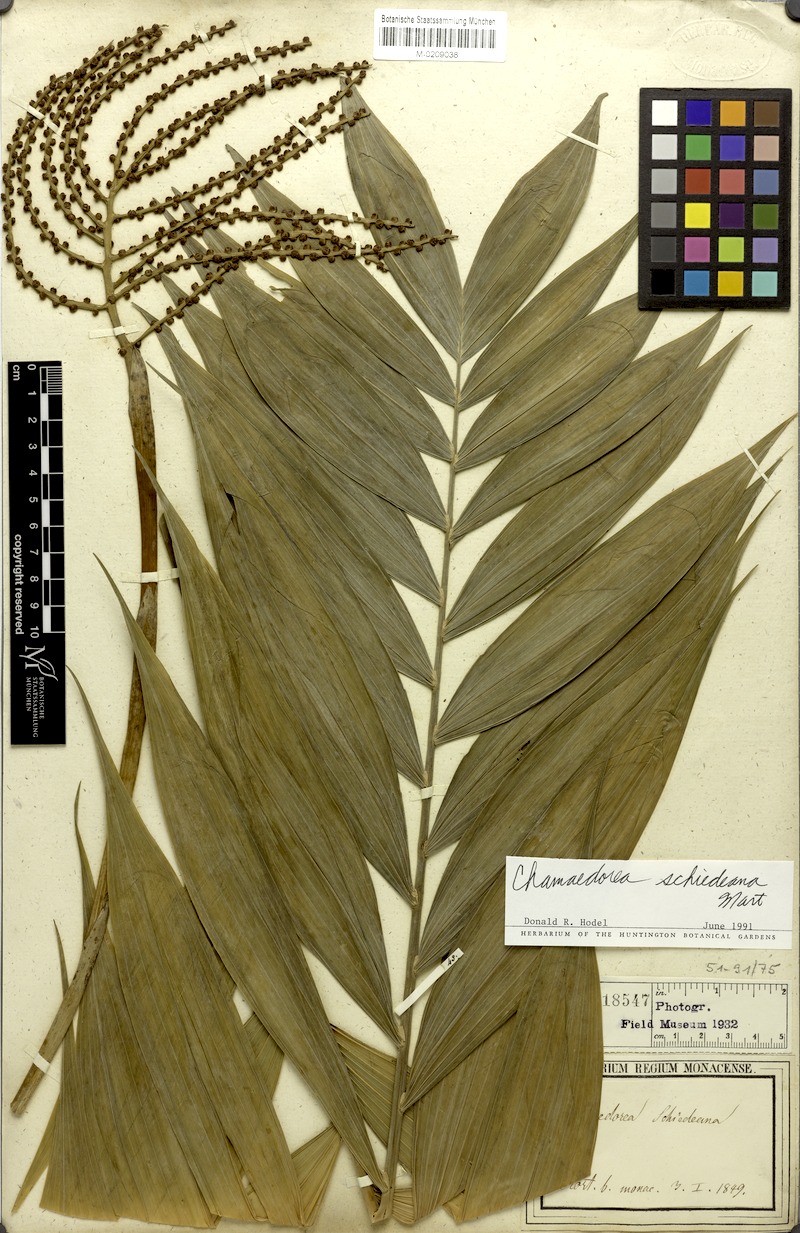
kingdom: Plantae
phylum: Tracheophyta
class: Liliopsida
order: Arecales
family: Arecaceae
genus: Chamaedorea
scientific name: Chamaedorea schiedeana
